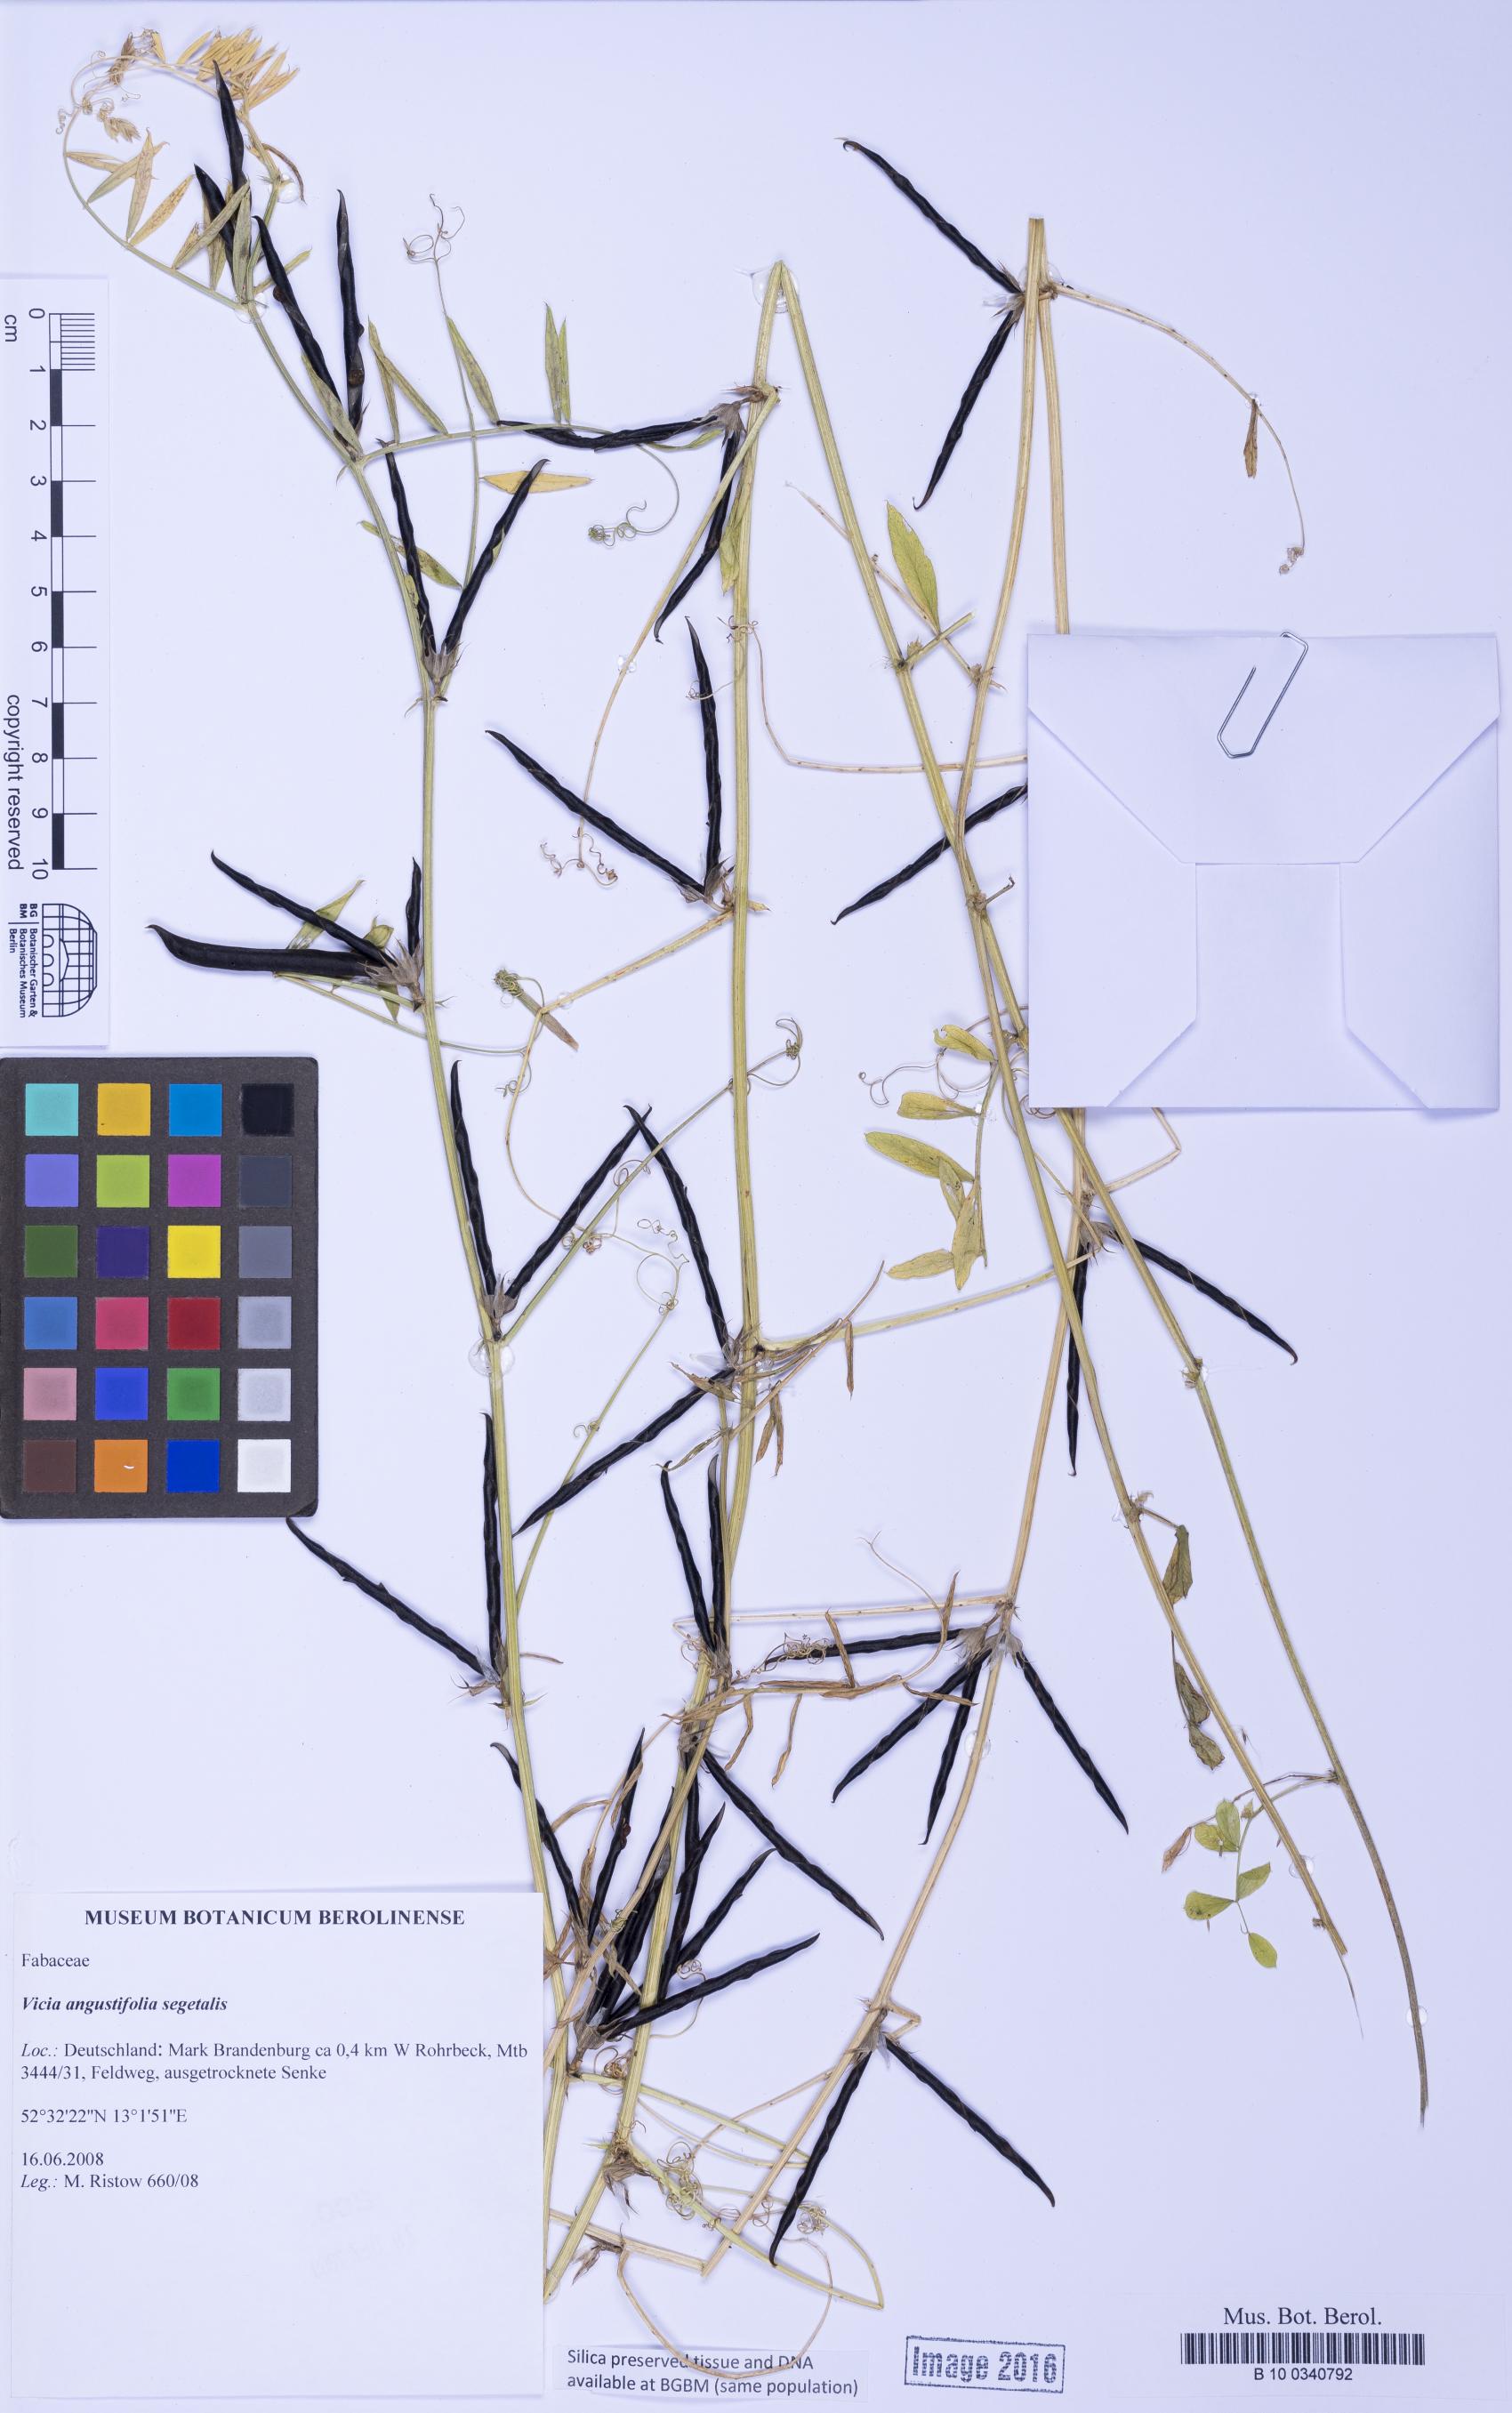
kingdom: Plantae
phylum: Tracheophyta
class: Magnoliopsida
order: Fabales
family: Fabaceae
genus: Vicia
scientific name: Vicia sativa
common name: Garden vetch
